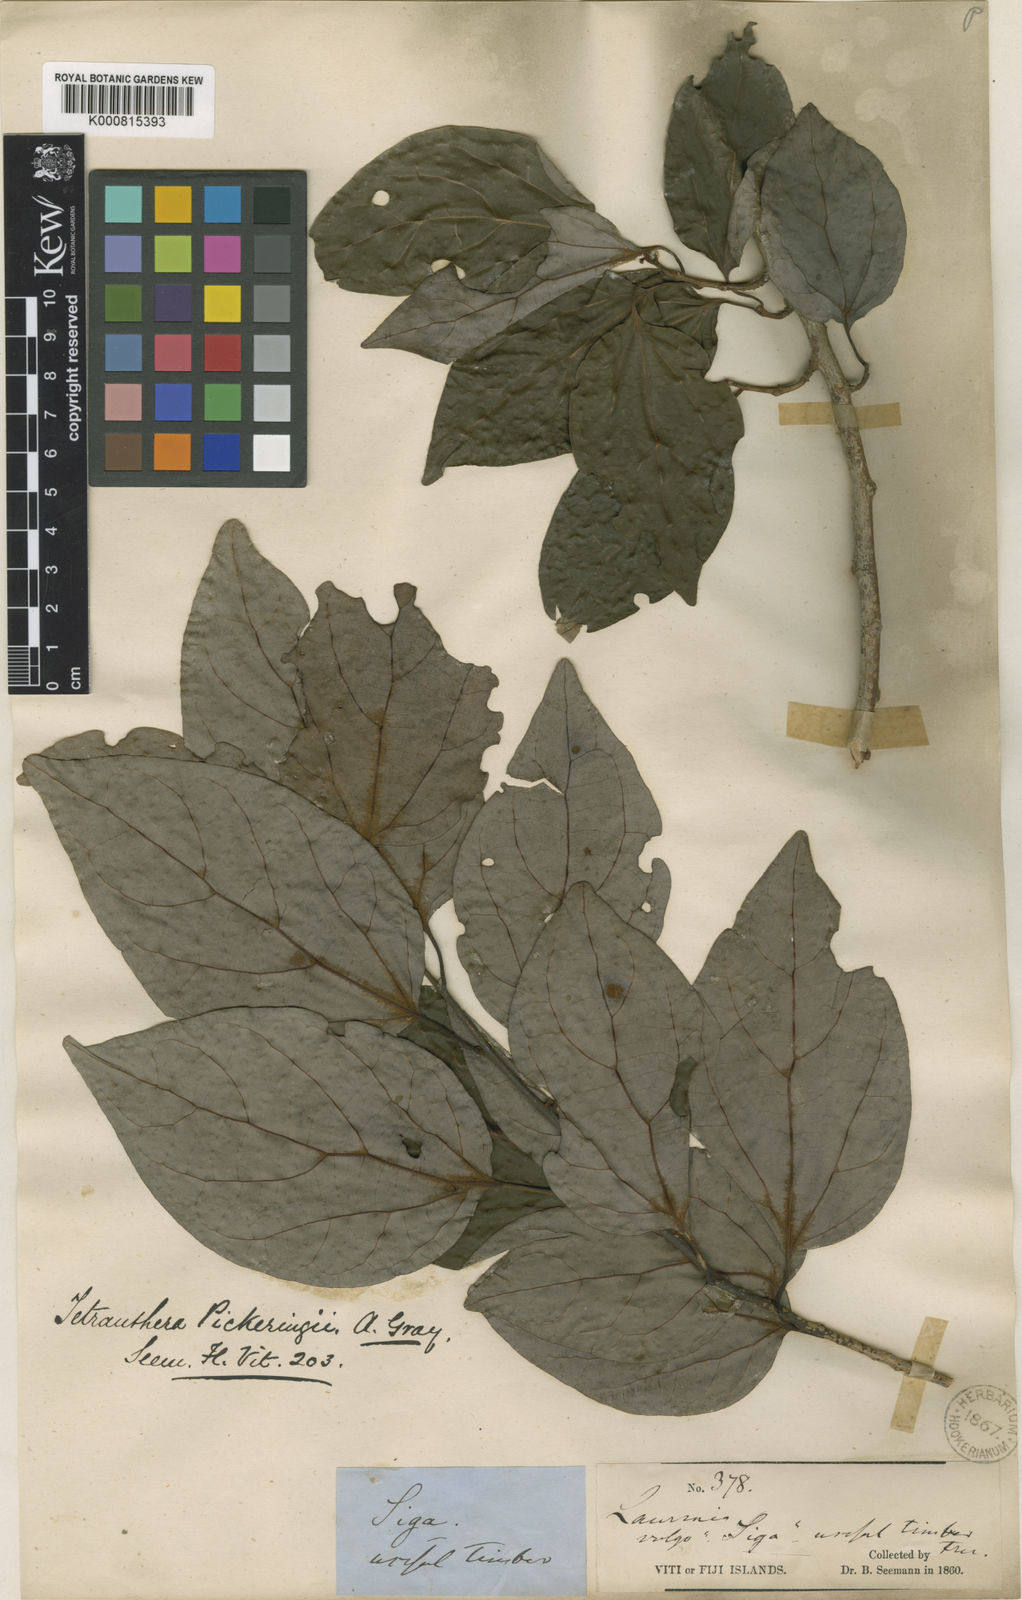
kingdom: Plantae
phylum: Tracheophyta
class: Magnoliopsida
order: Laurales
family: Lauraceae
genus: Litsea
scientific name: Litsea pickeringii
